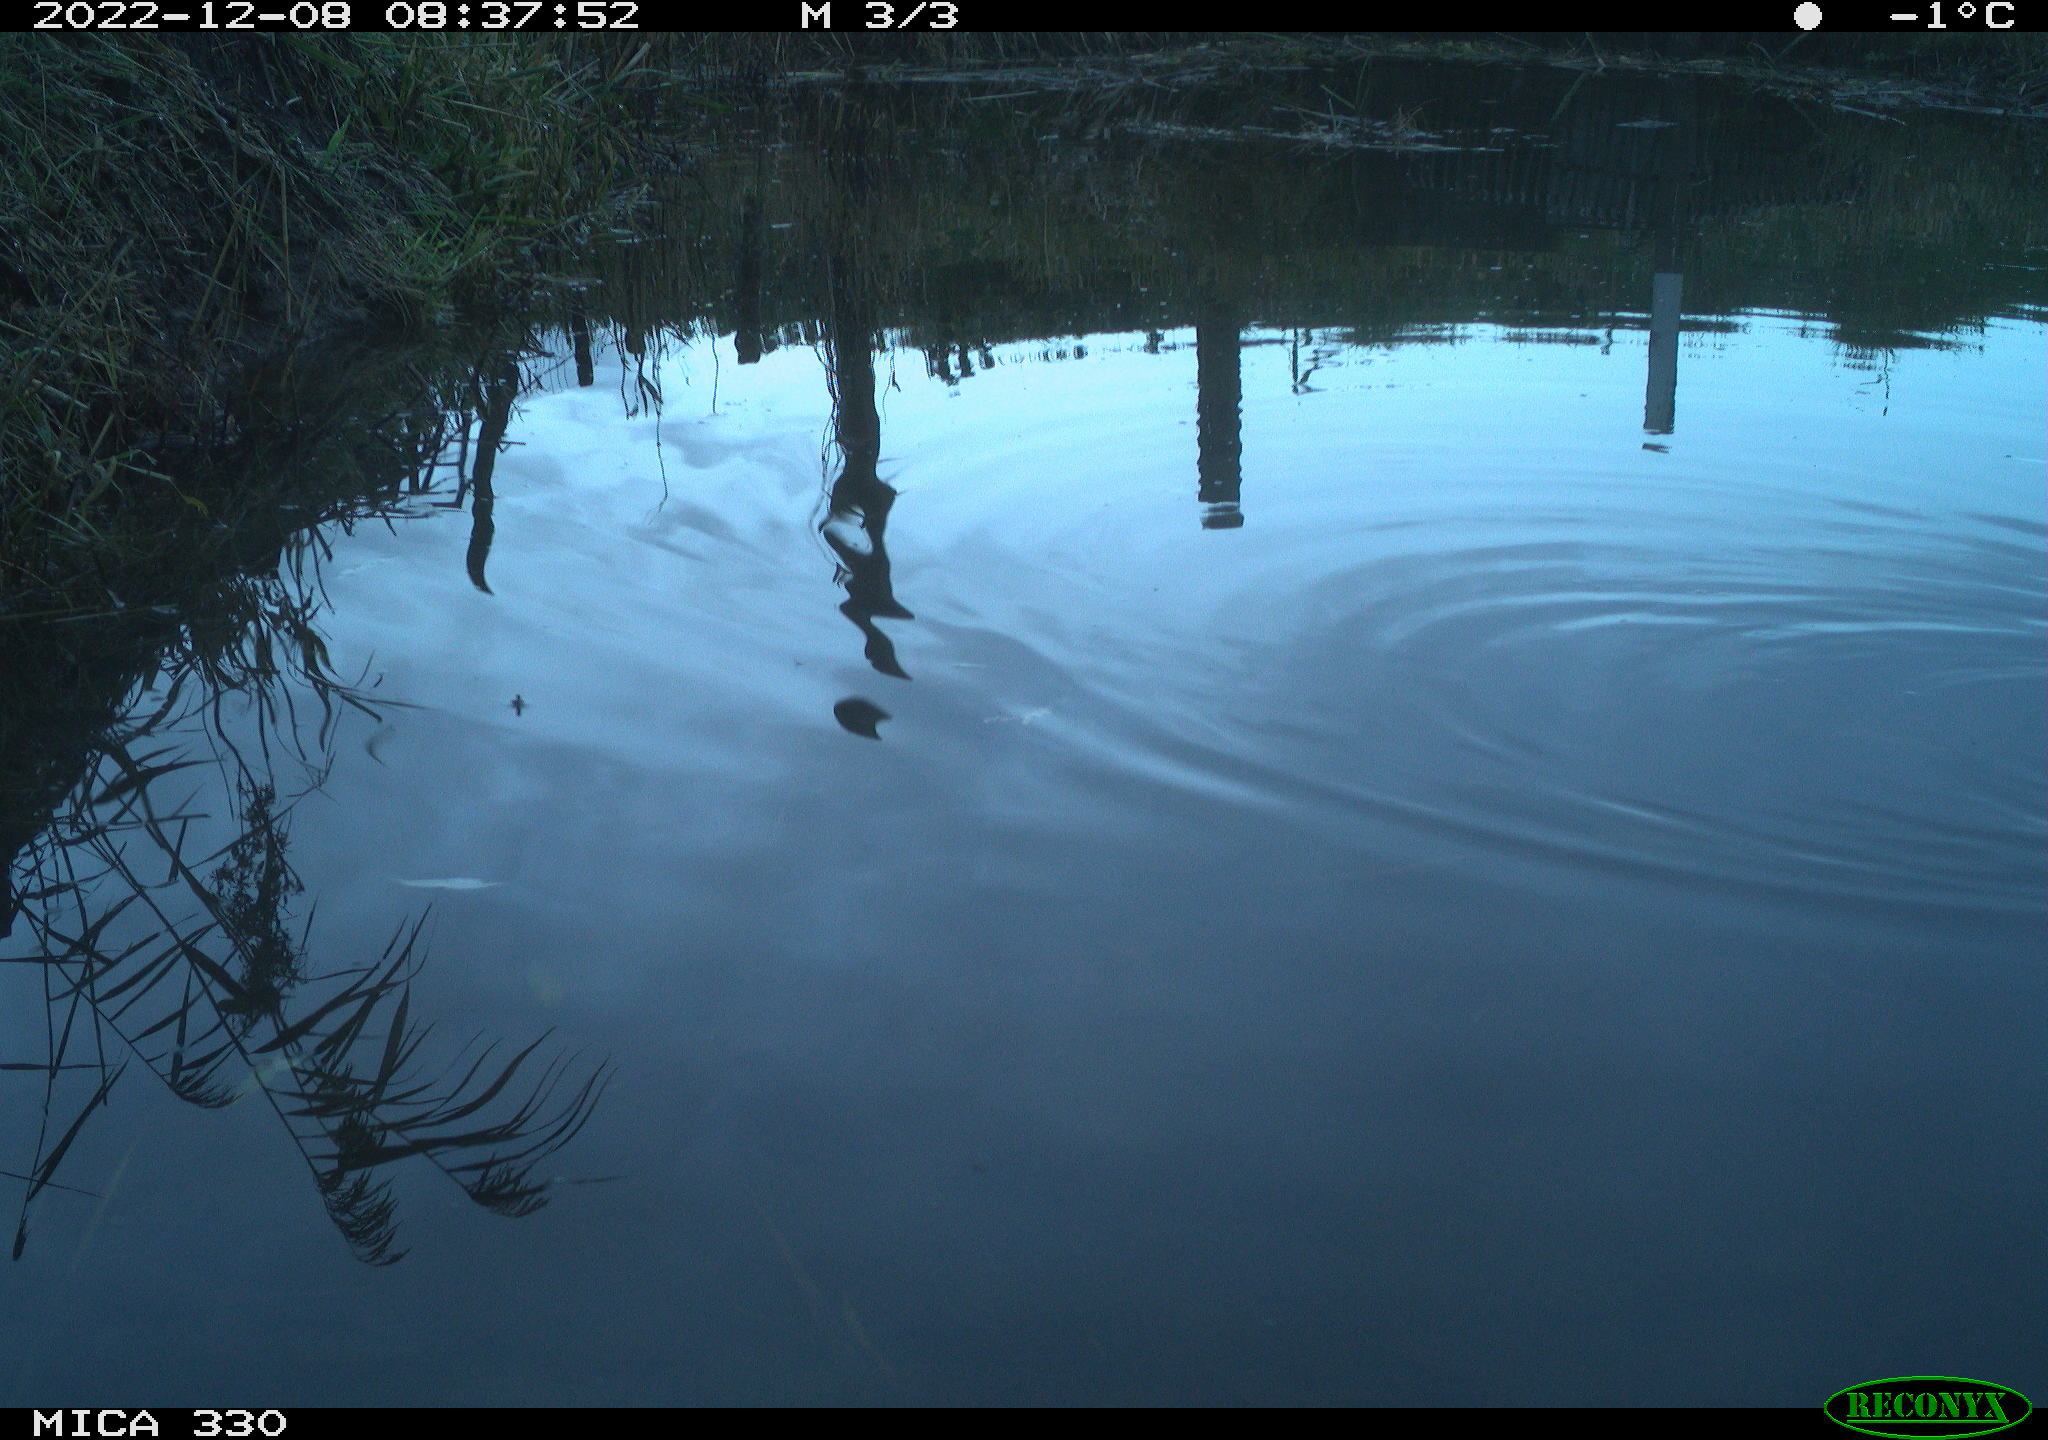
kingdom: Animalia
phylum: Chordata
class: Aves
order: Gruiformes
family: Rallidae
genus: Gallinula
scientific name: Gallinula chloropus
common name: Common moorhen
